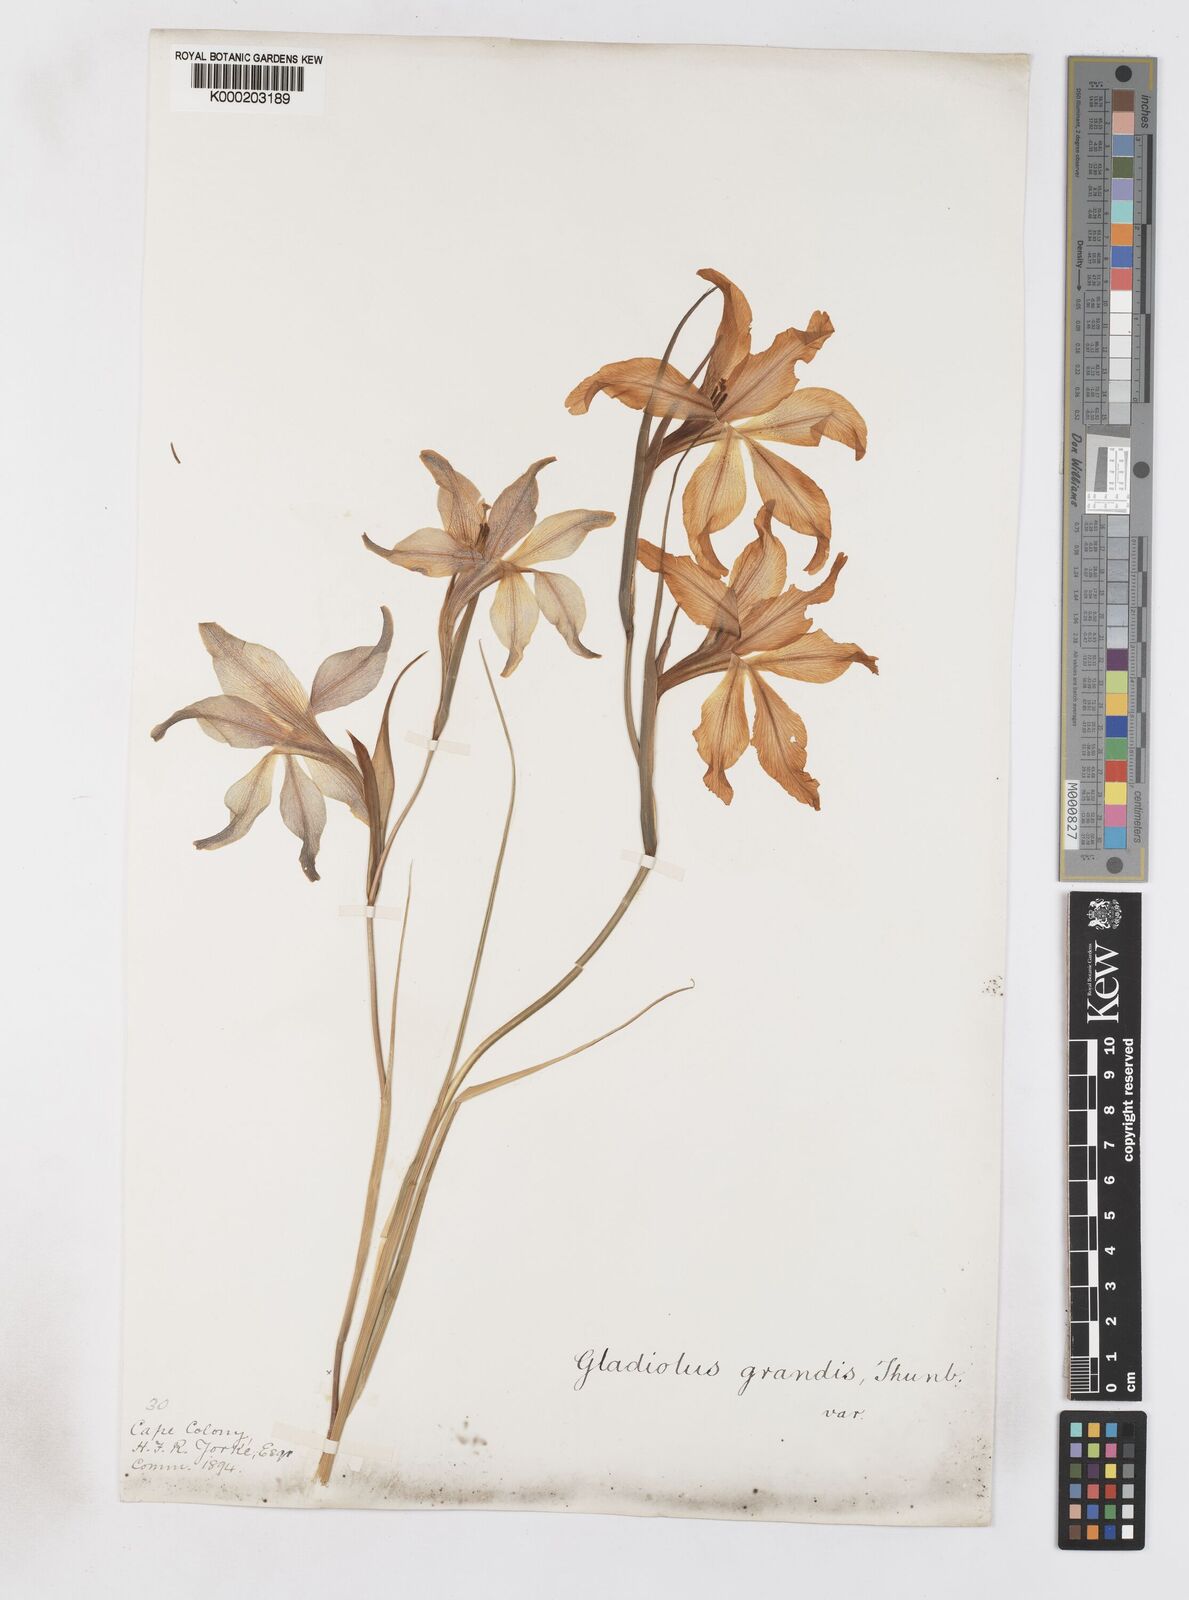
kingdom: Plantae
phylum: Tracheophyta
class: Liliopsida
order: Asparagales
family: Iridaceae
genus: Gladiolus
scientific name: Gladiolus liliaceus
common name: Large brown afrikaner
